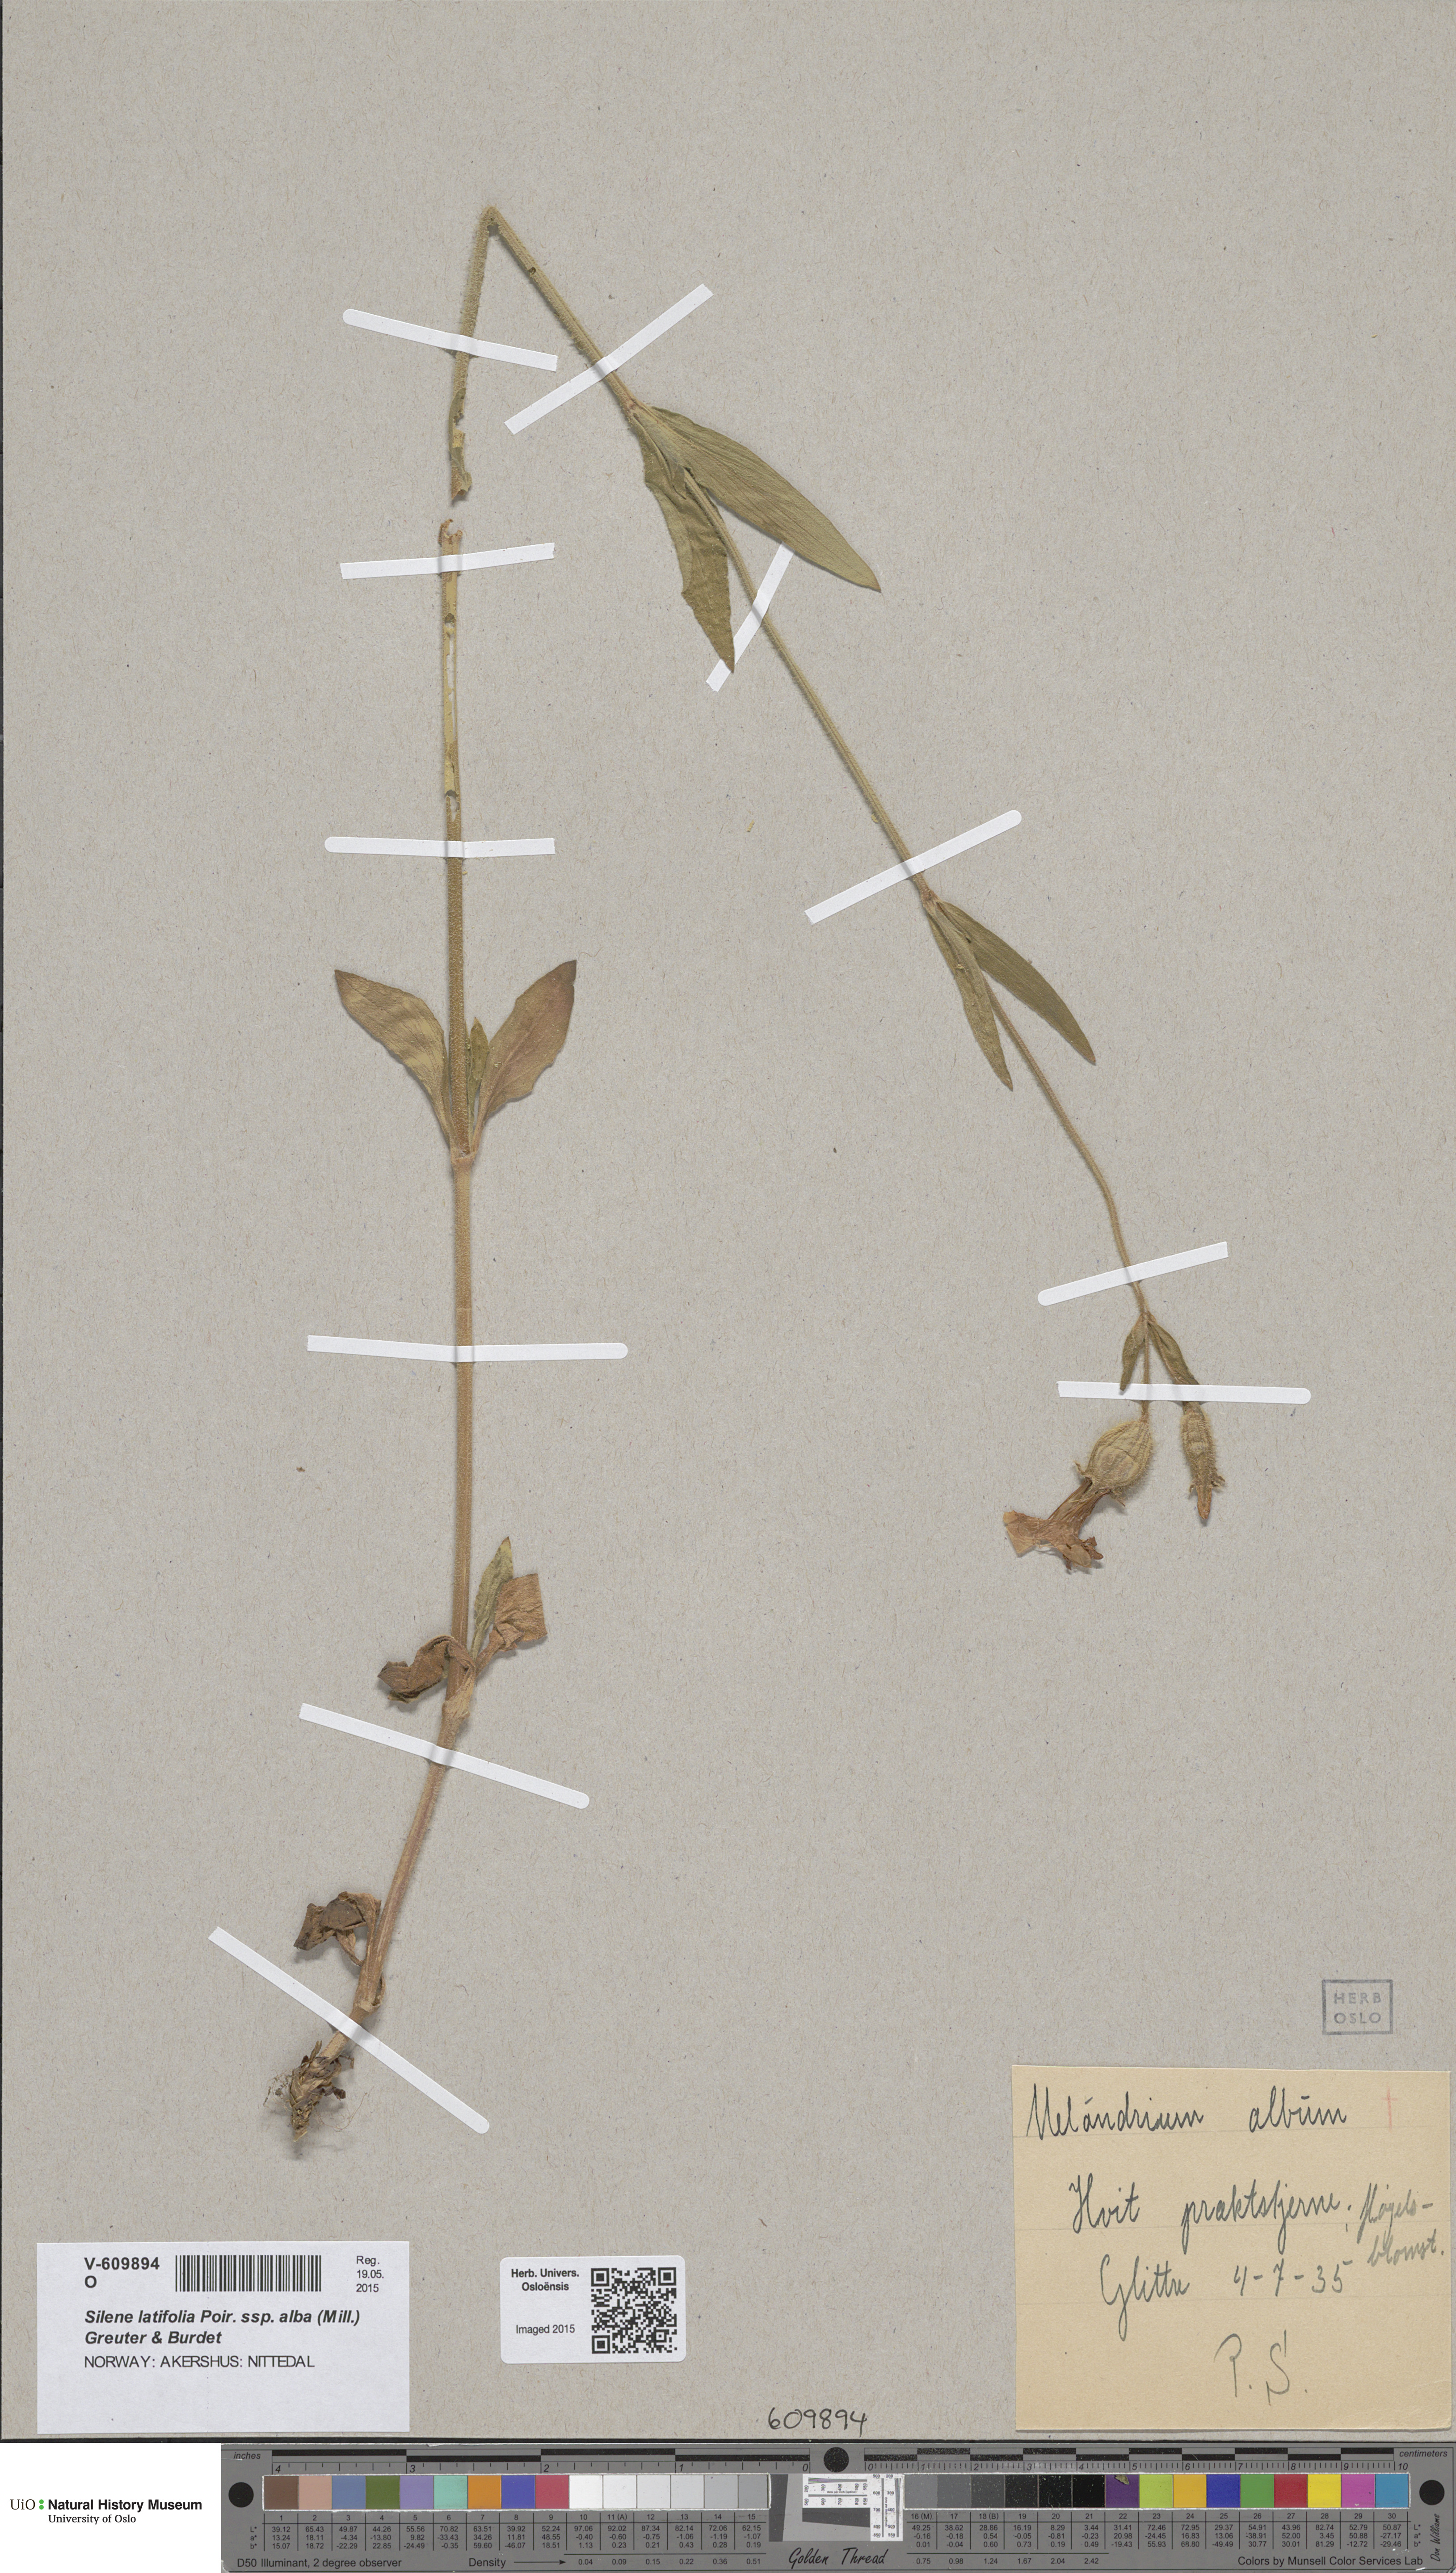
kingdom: Plantae
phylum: Tracheophyta
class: Magnoliopsida
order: Caryophyllales
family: Caryophyllaceae
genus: Silene
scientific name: Silene latifolia
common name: White campion
